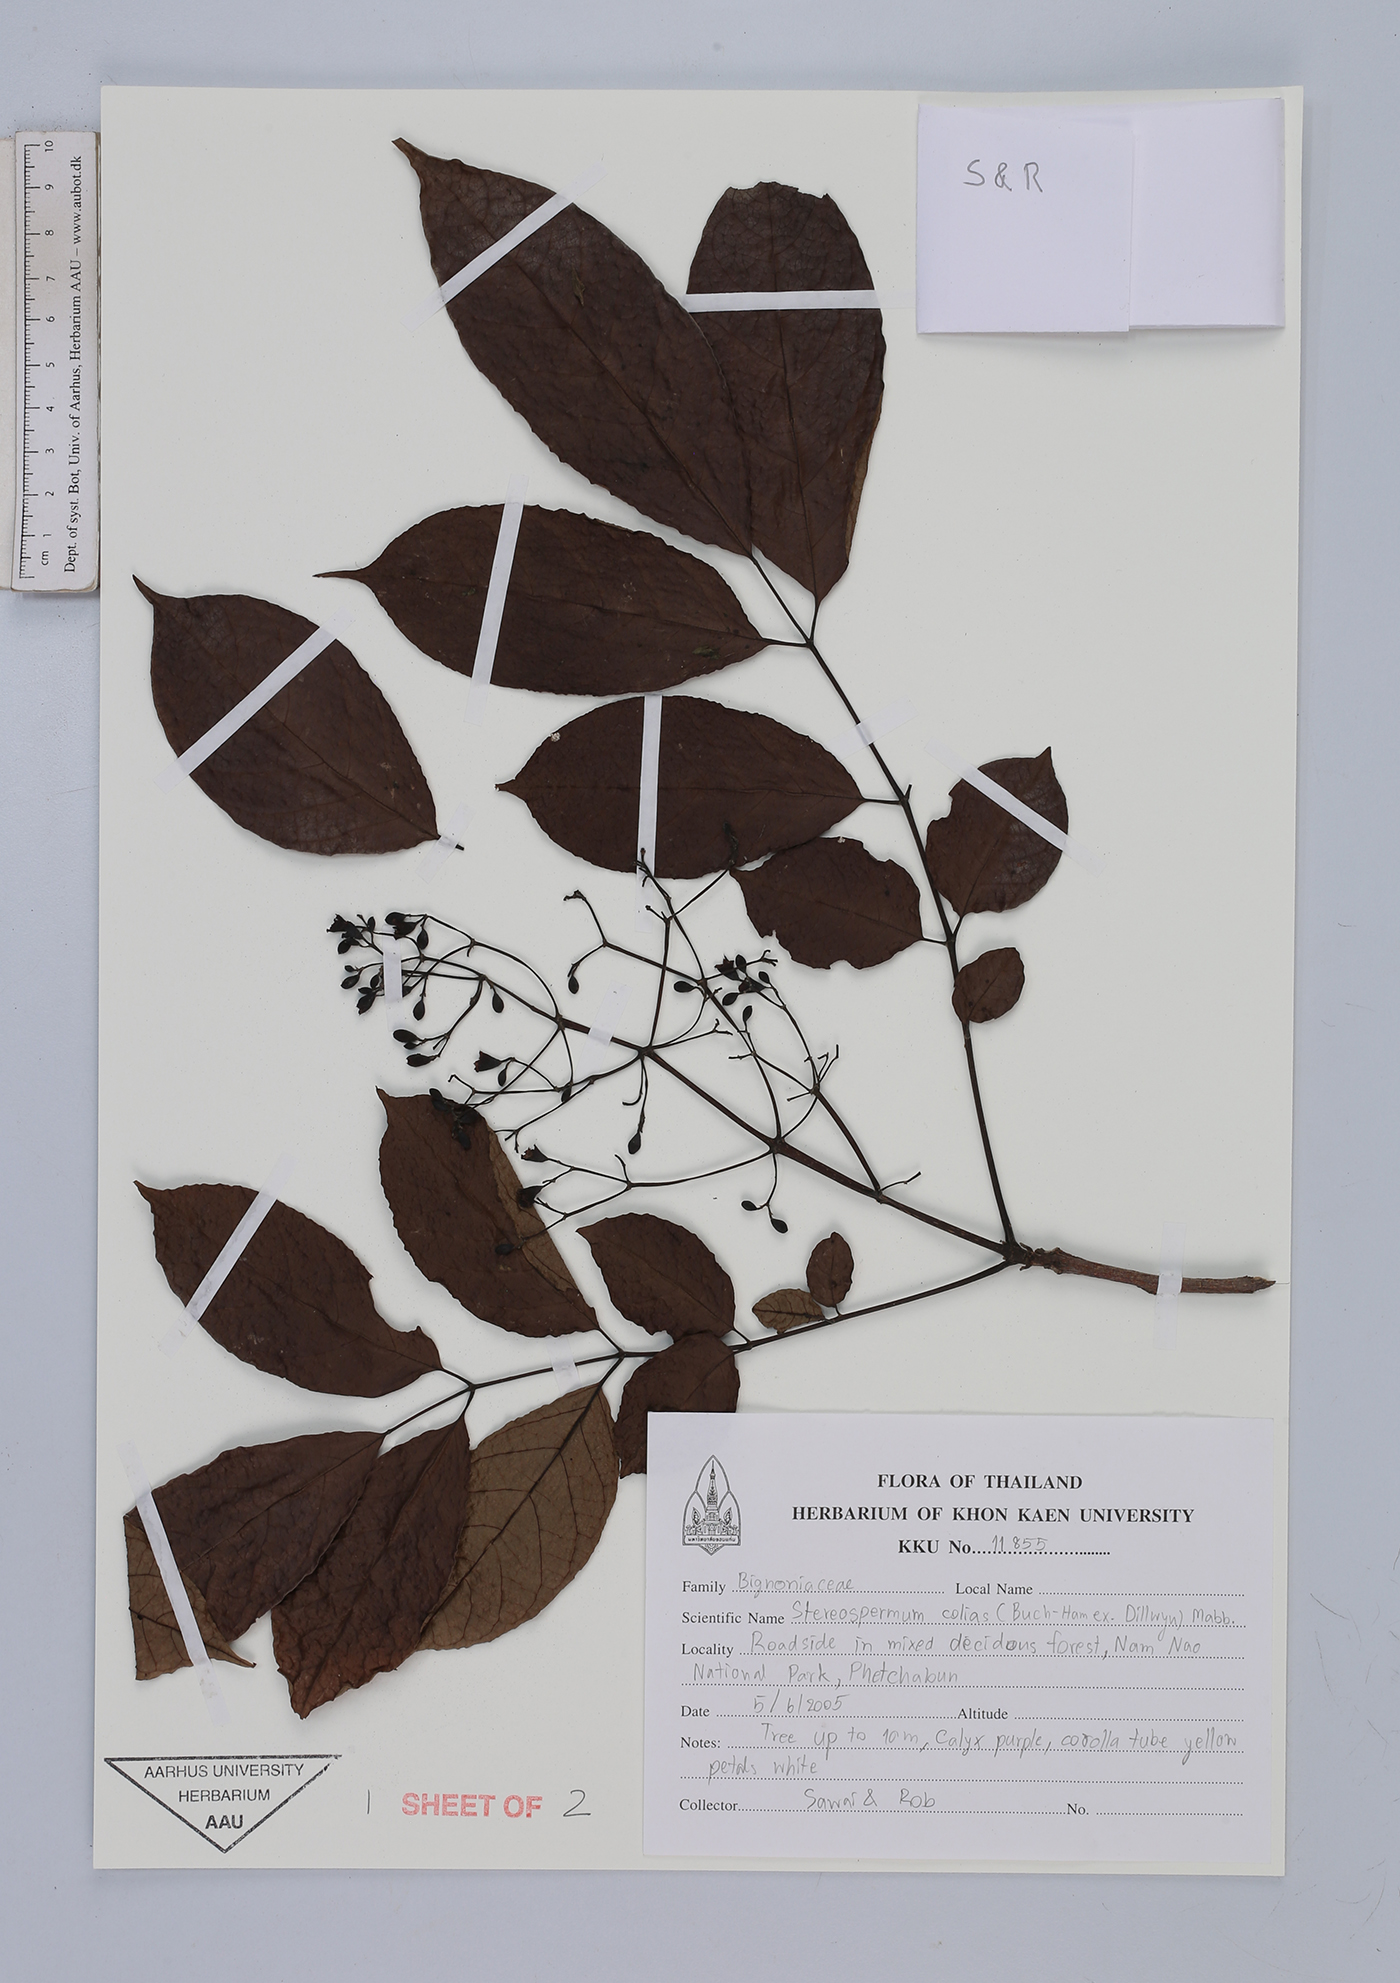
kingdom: Plantae
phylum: Tracheophyta
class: Magnoliopsida
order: Lamiales
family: Bignoniaceae
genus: Stereospermum
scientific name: Stereospermum colais
